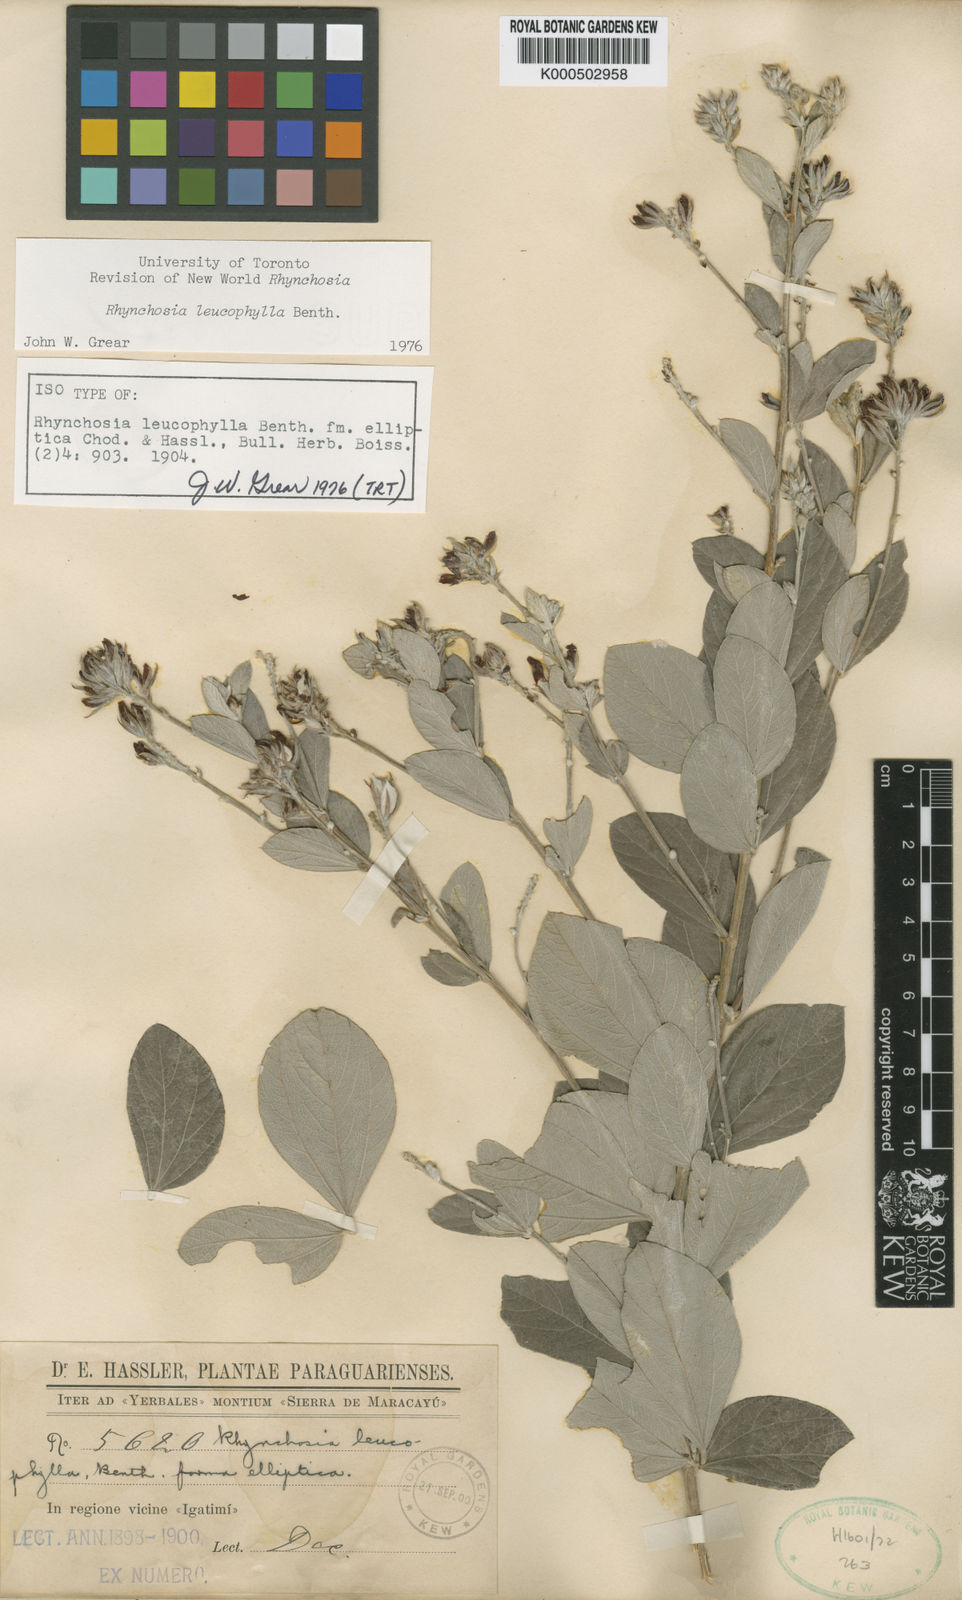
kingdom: Plantae
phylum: Tracheophyta
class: Magnoliopsida
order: Fabales
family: Fabaceae
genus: Rhynchosia
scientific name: Rhynchosia leucophylla
